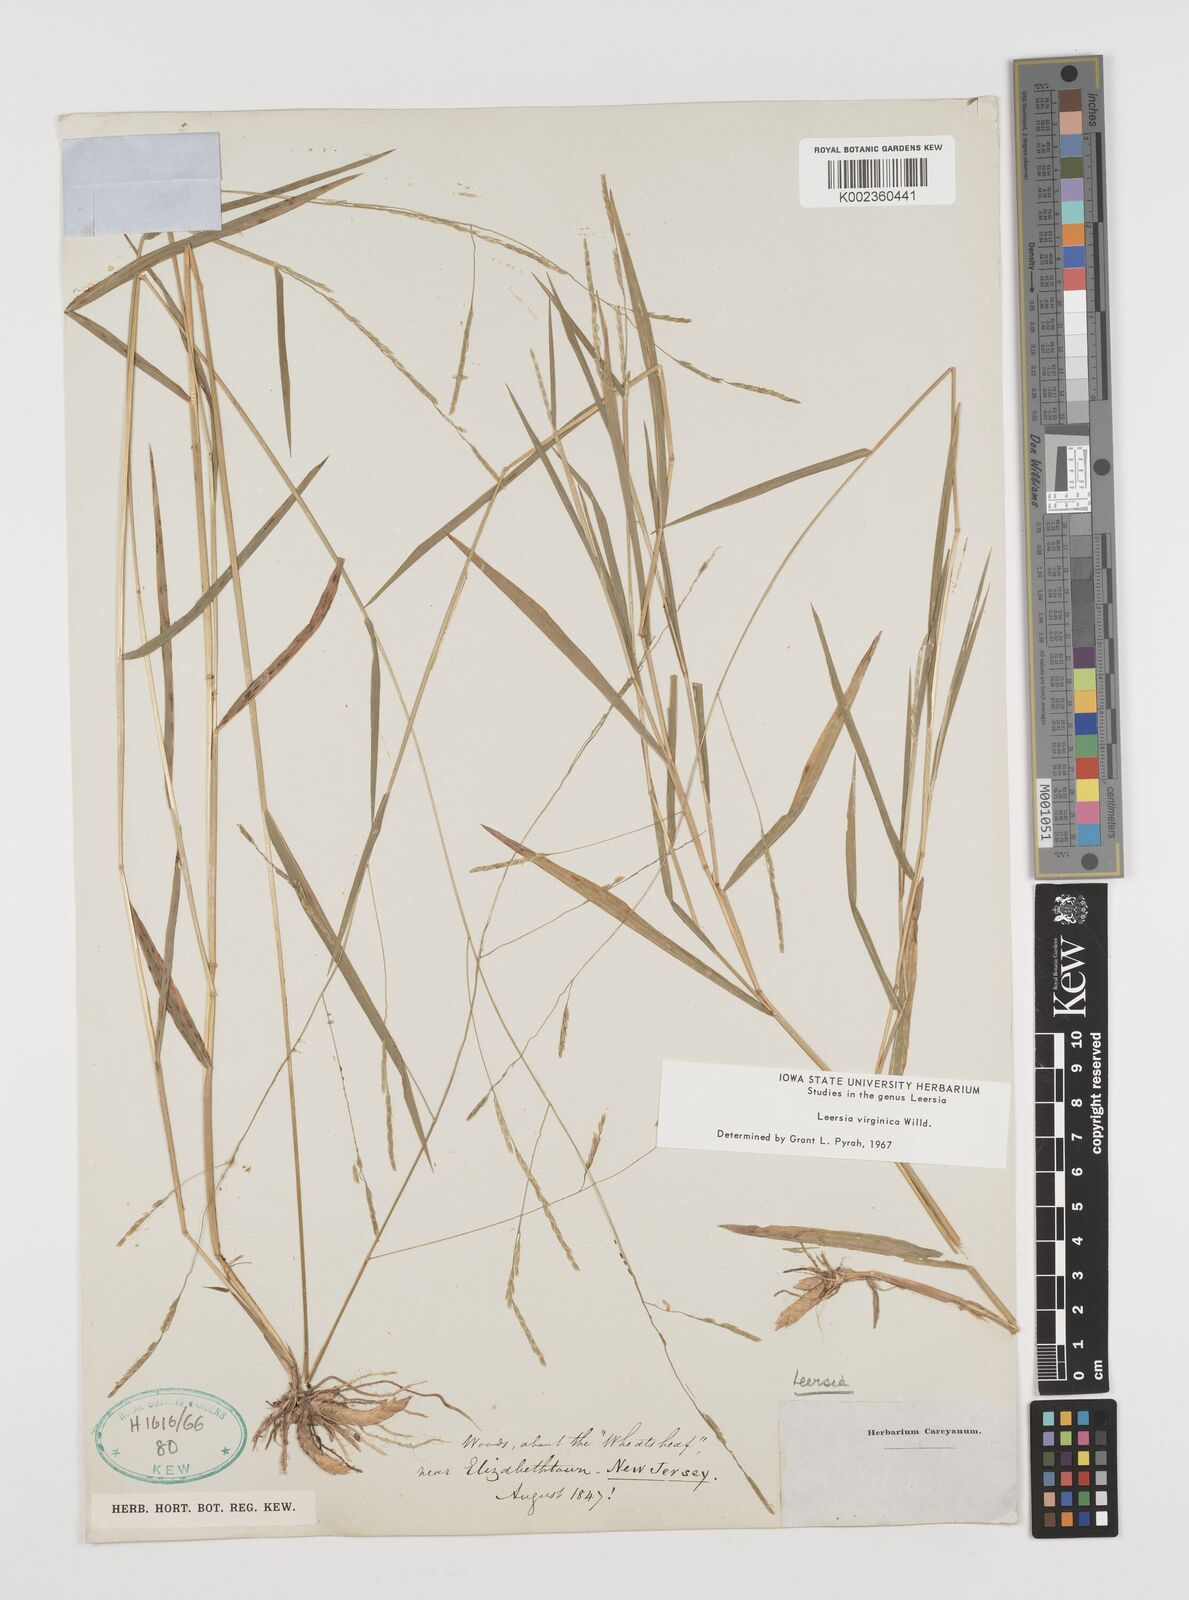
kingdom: Plantae
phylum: Tracheophyta
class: Liliopsida
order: Poales
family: Poaceae
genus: Leersia
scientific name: Leersia virginica
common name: White cutgrass
